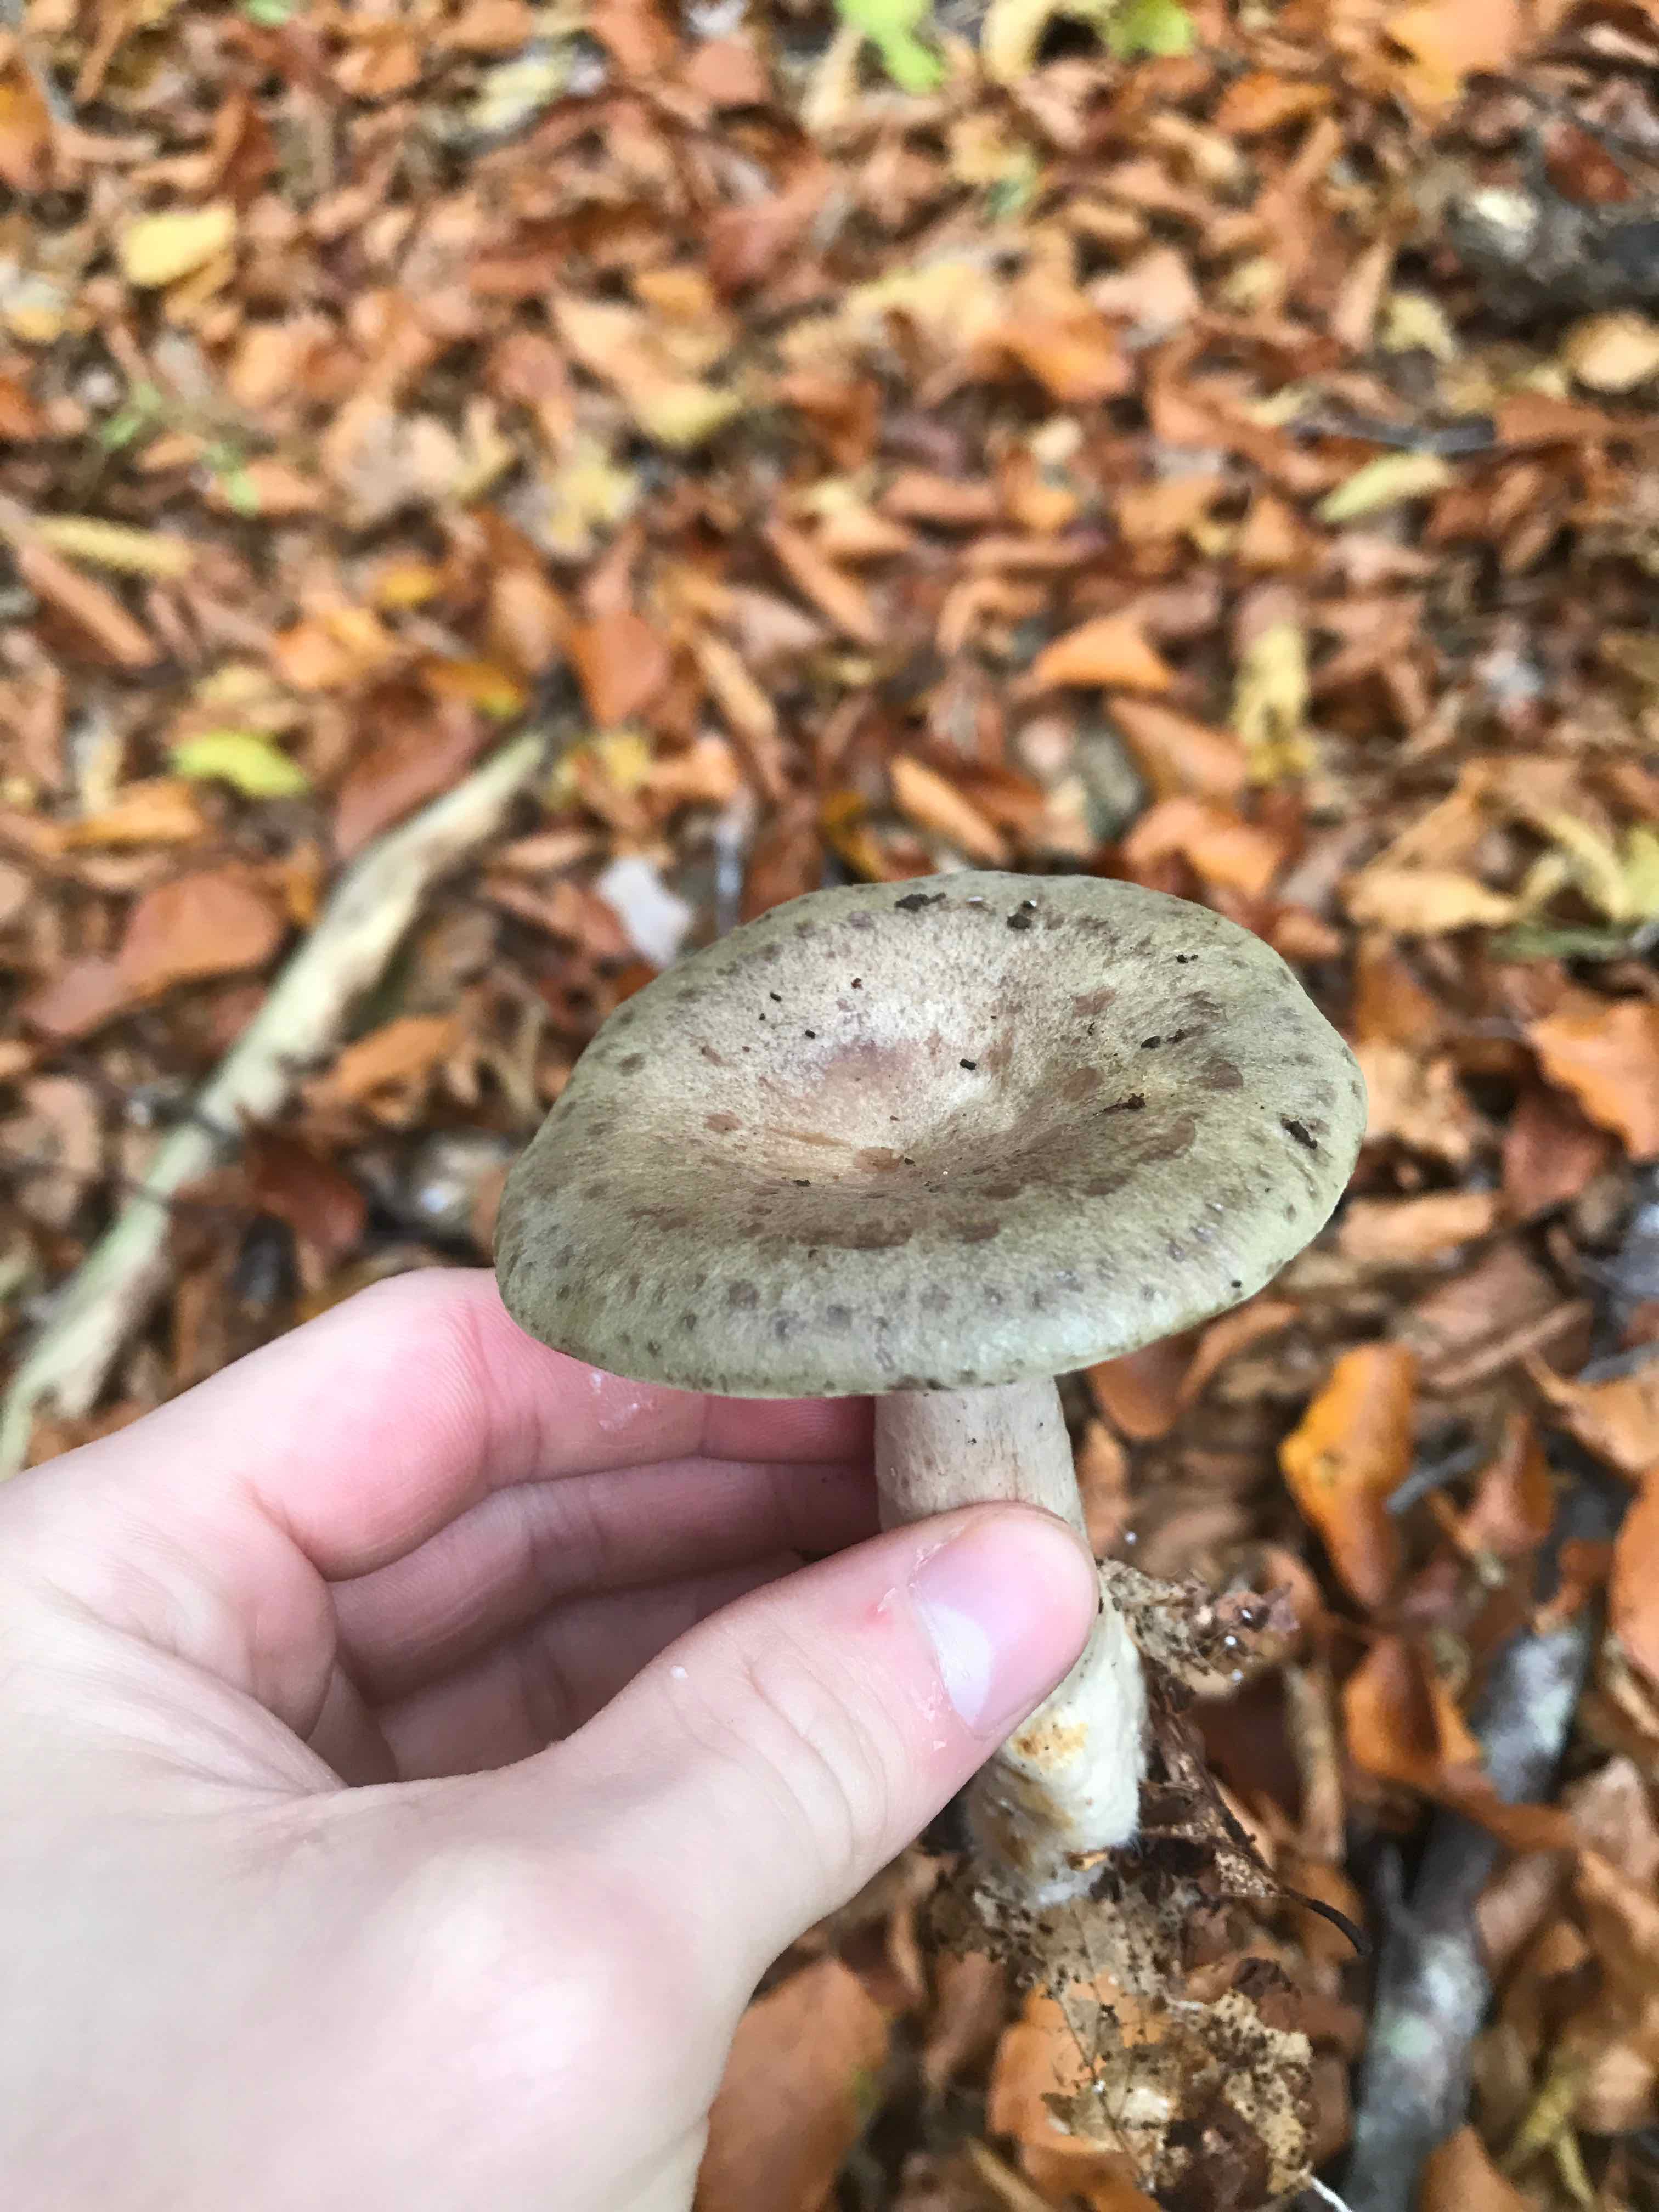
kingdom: Fungi
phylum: Basidiomycota
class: Agaricomycetes
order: Russulales
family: Russulaceae
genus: Lactarius
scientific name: Lactarius blennius
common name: dråbeplettet mælkehat
